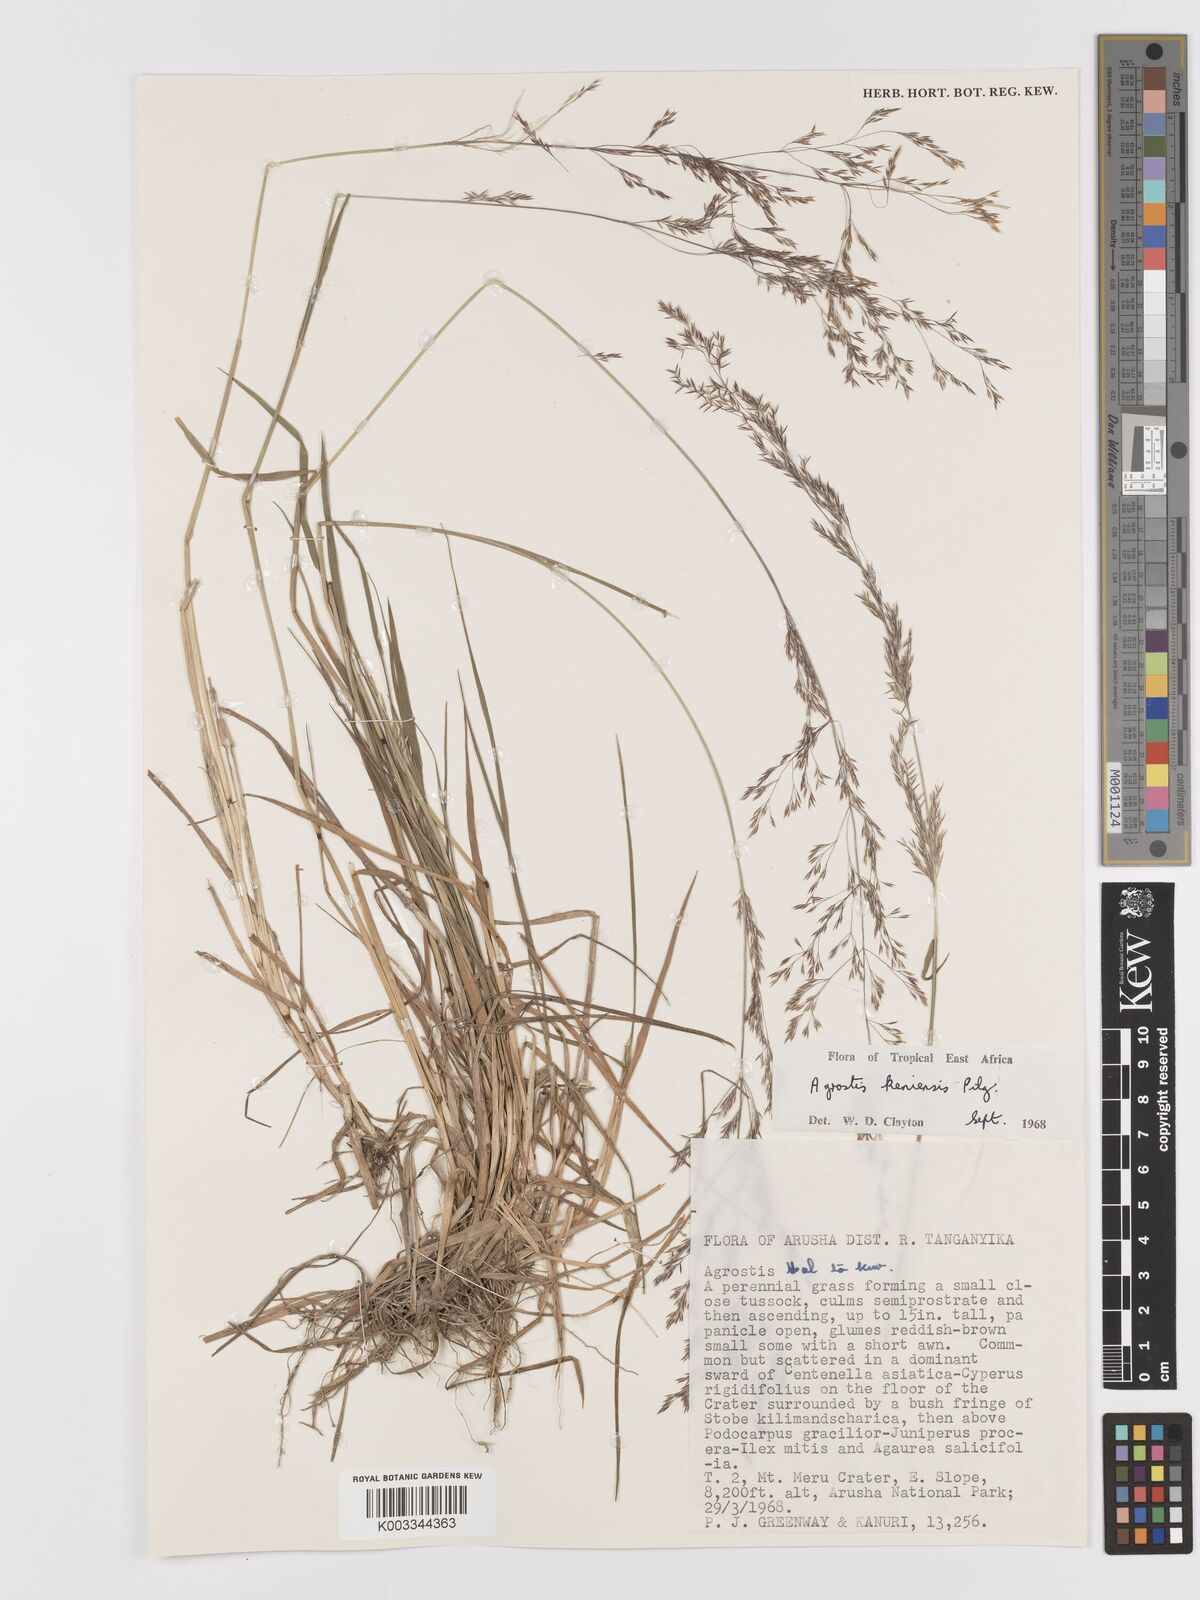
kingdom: Plantae
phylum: Tracheophyta
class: Liliopsida
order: Poales
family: Poaceae
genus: Agrostis
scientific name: Agrostis keniensis
